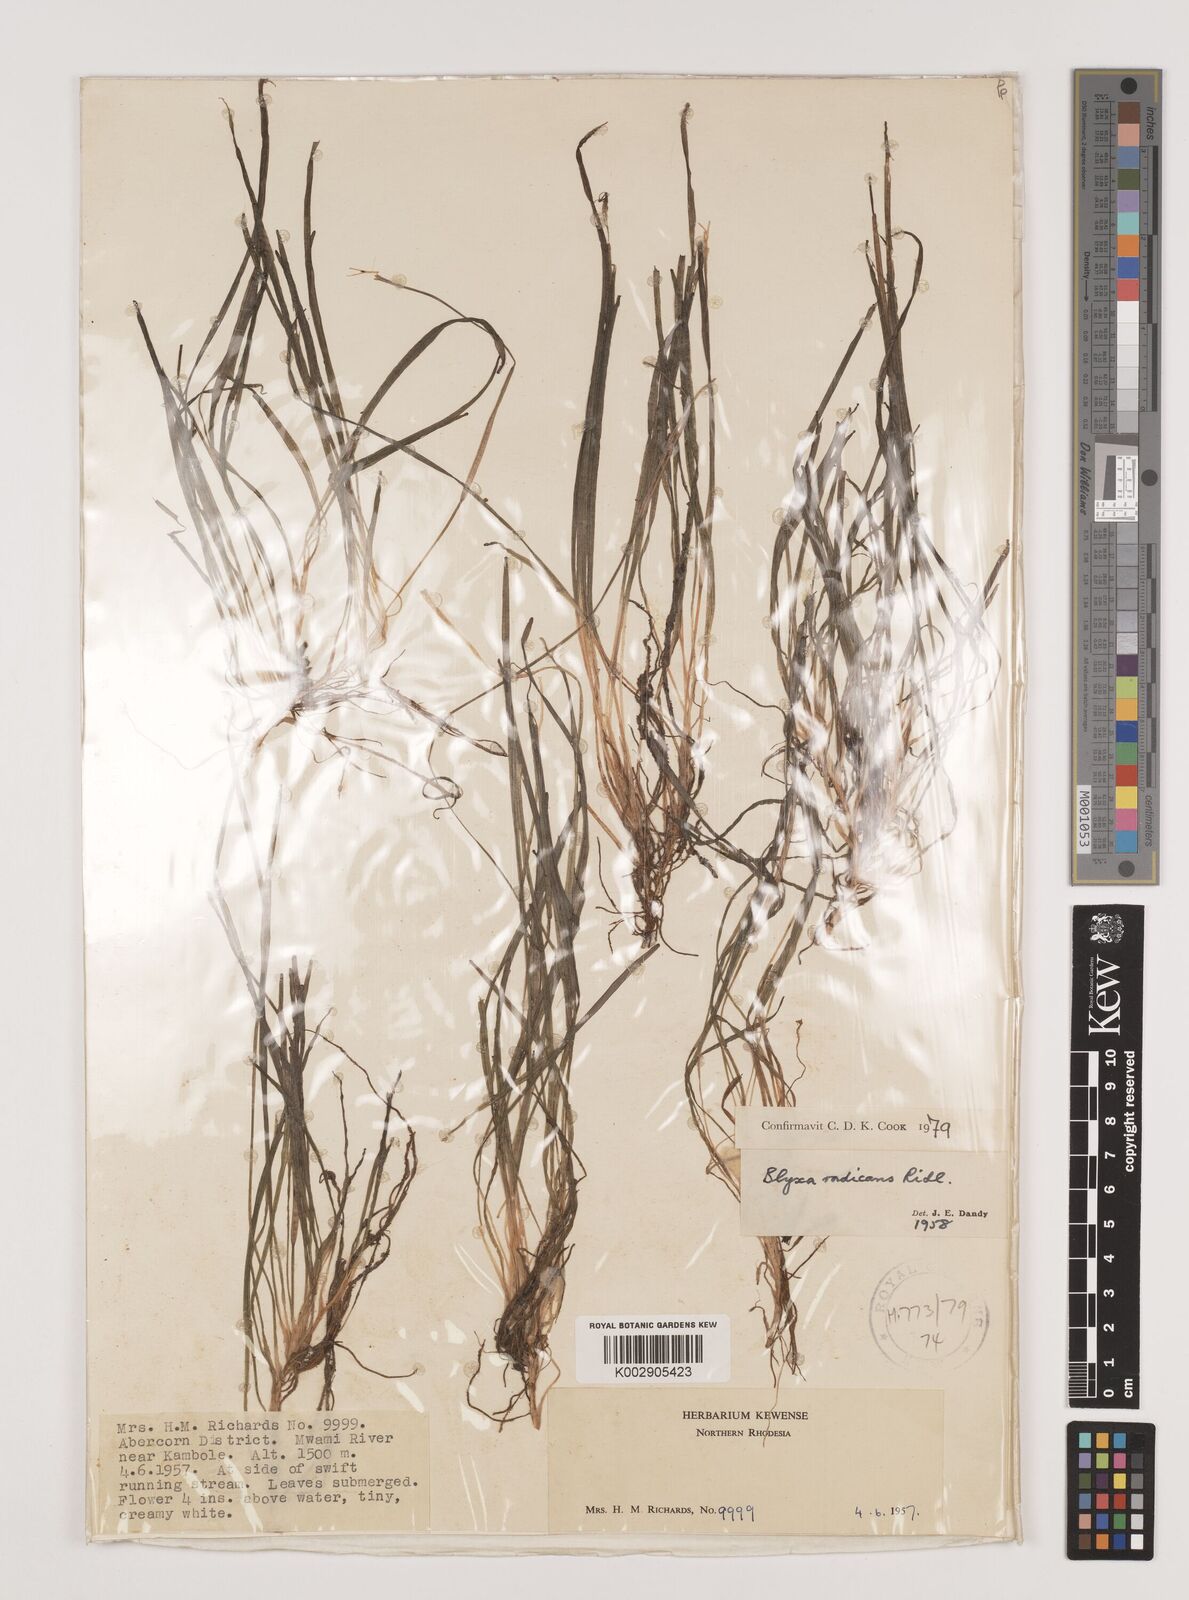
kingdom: Plantae
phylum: Tracheophyta
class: Liliopsida
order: Alismatales
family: Hydrocharitaceae
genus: Blyxa
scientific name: Blyxa radicans
